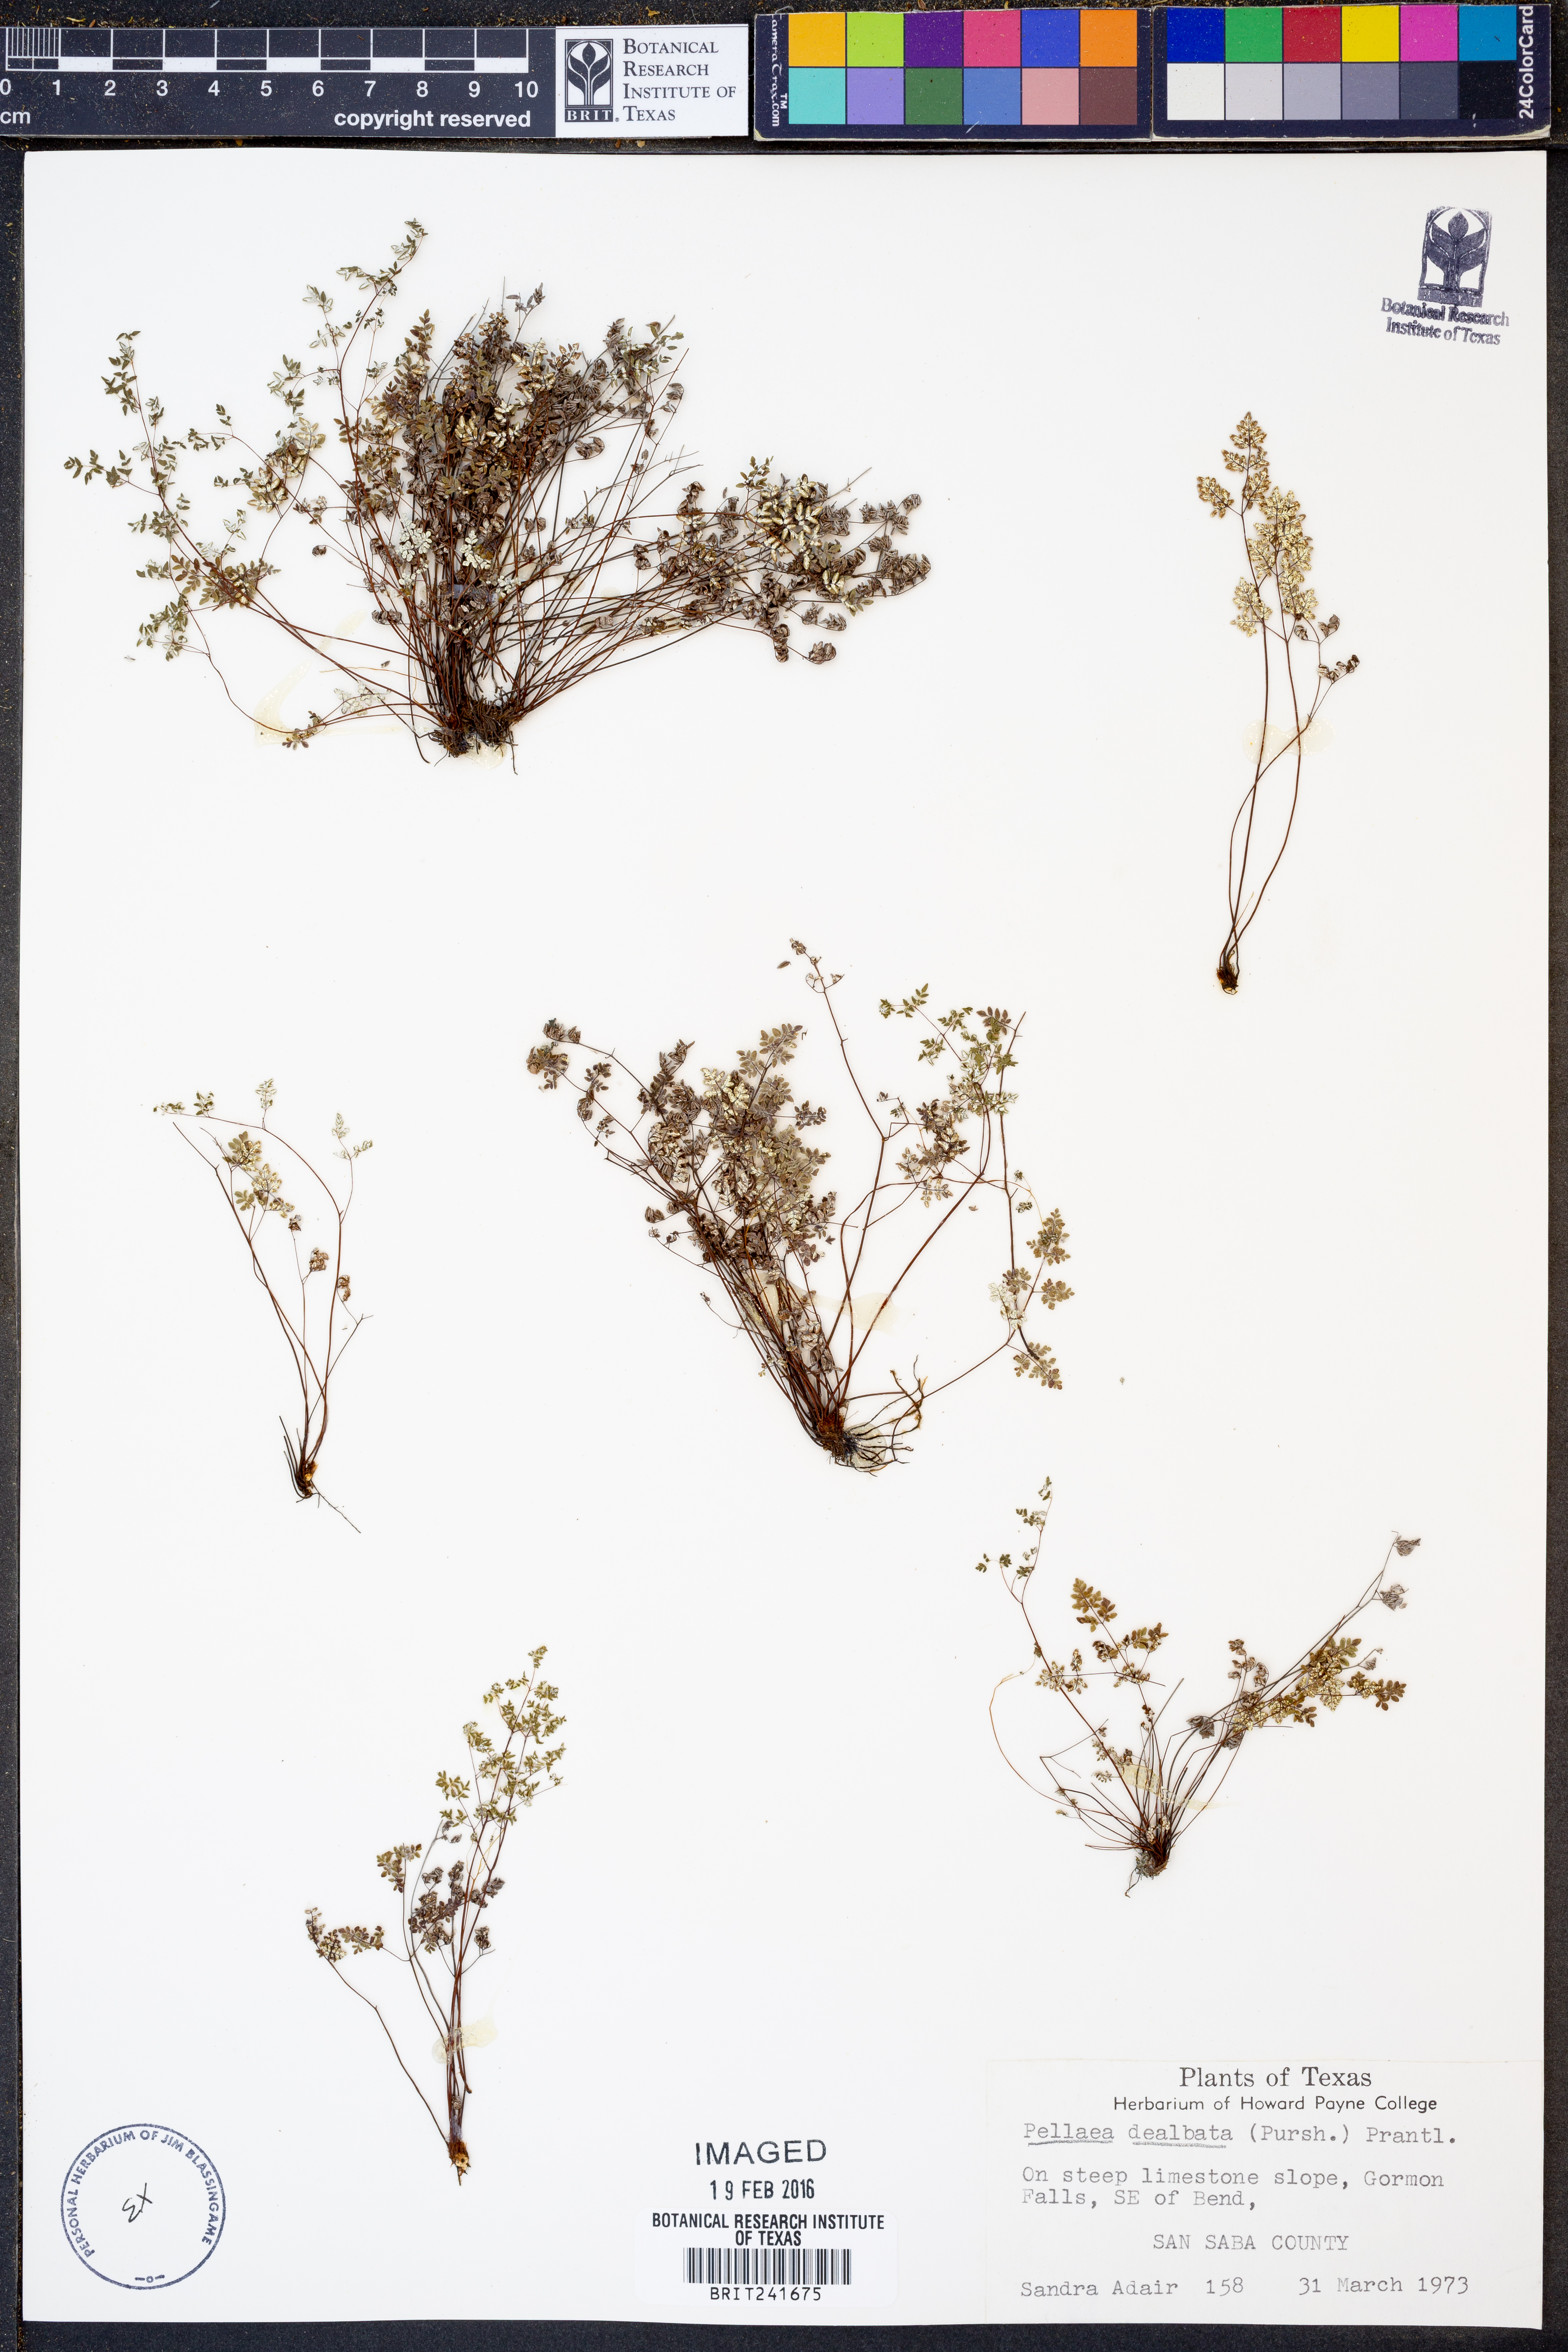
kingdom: Plantae
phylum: Tracheophyta
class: Polypodiopsida
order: Polypodiales
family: Pteridaceae
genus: Argyrochosma
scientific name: Argyrochosma dealbata
